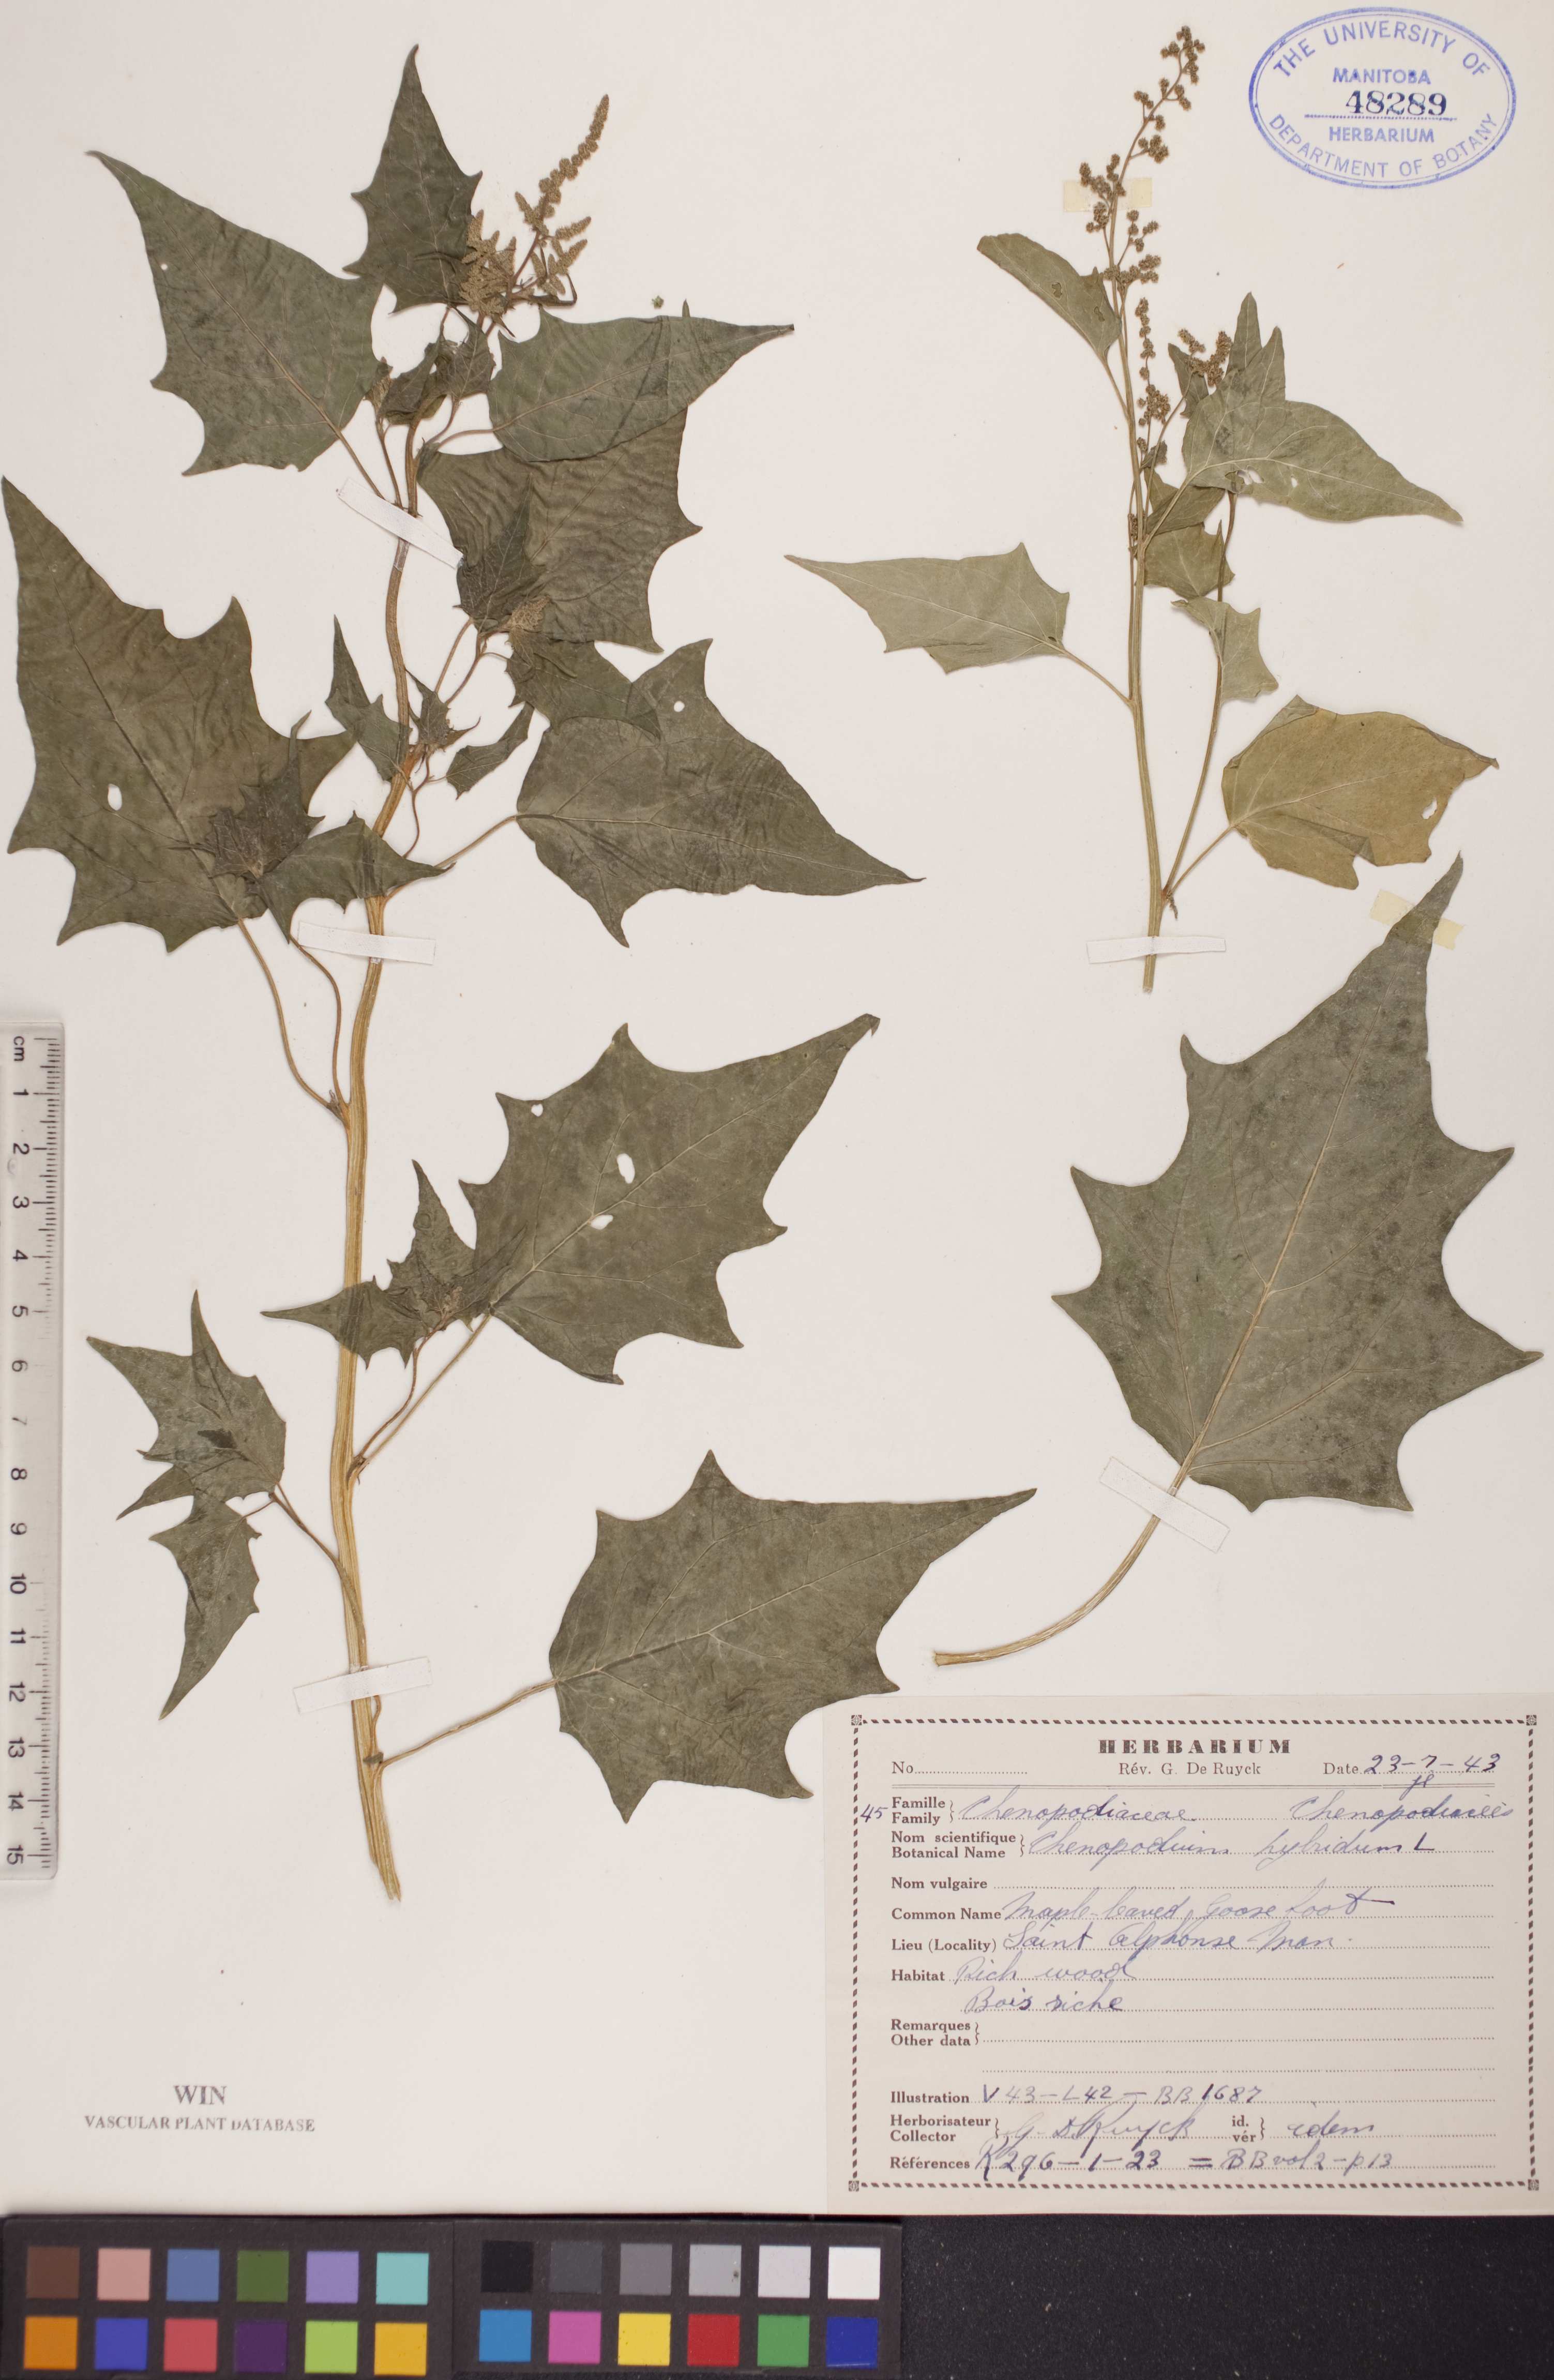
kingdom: Plantae
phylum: Tracheophyta
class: Magnoliopsida
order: Caryophyllales
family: Amaranthaceae
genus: Chenopodiastrum
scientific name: Chenopodiastrum hybridum
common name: Mapleleaf goosefoot
